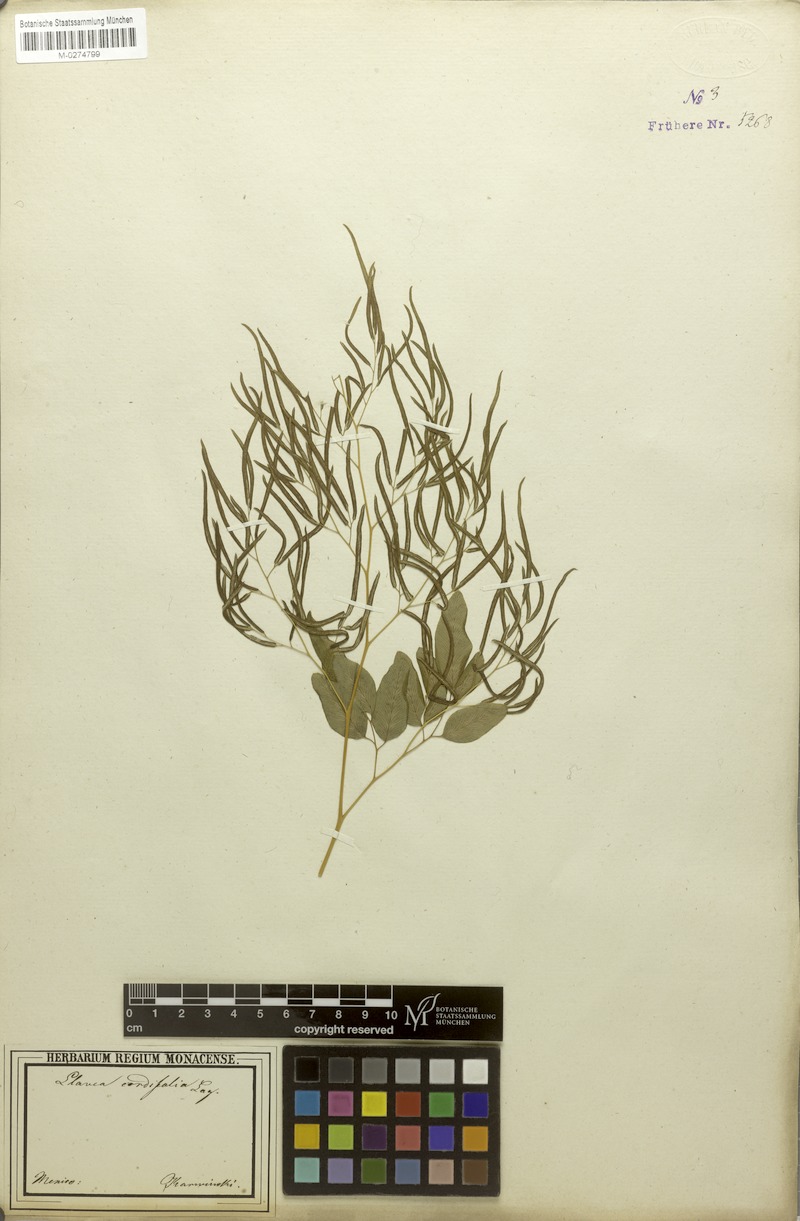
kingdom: Plantae
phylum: Tracheophyta
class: Polypodiopsida
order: Polypodiales
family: Pteridaceae
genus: Llavea
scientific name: Llavea cordifolia
